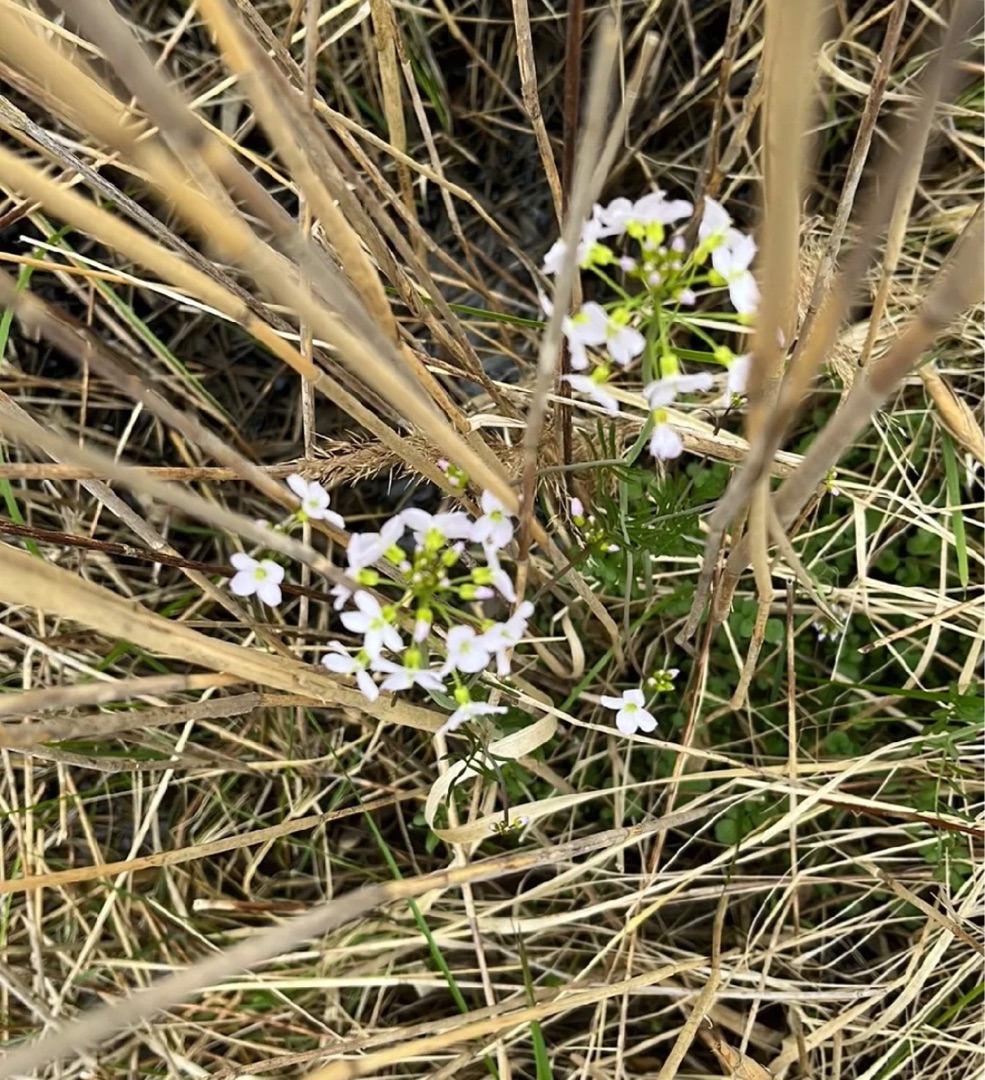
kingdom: Plantae
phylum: Tracheophyta
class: Magnoliopsida
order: Brassicales
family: Brassicaceae
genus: Cardamine
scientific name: Cardamine pratensis
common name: Engkarse
